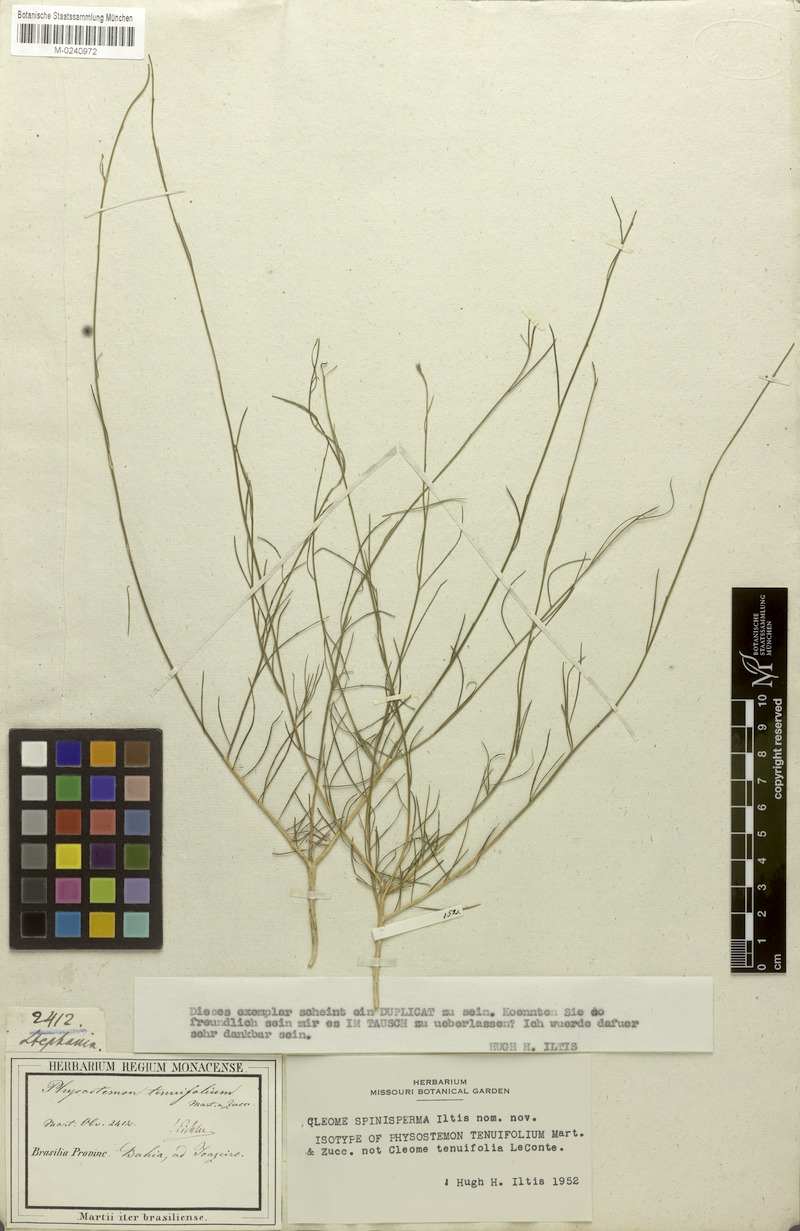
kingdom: Plantae
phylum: Tracheophyta
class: Magnoliopsida
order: Brassicales
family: Cleomaceae
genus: Physostemon
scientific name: Physostemon tenuifolius
